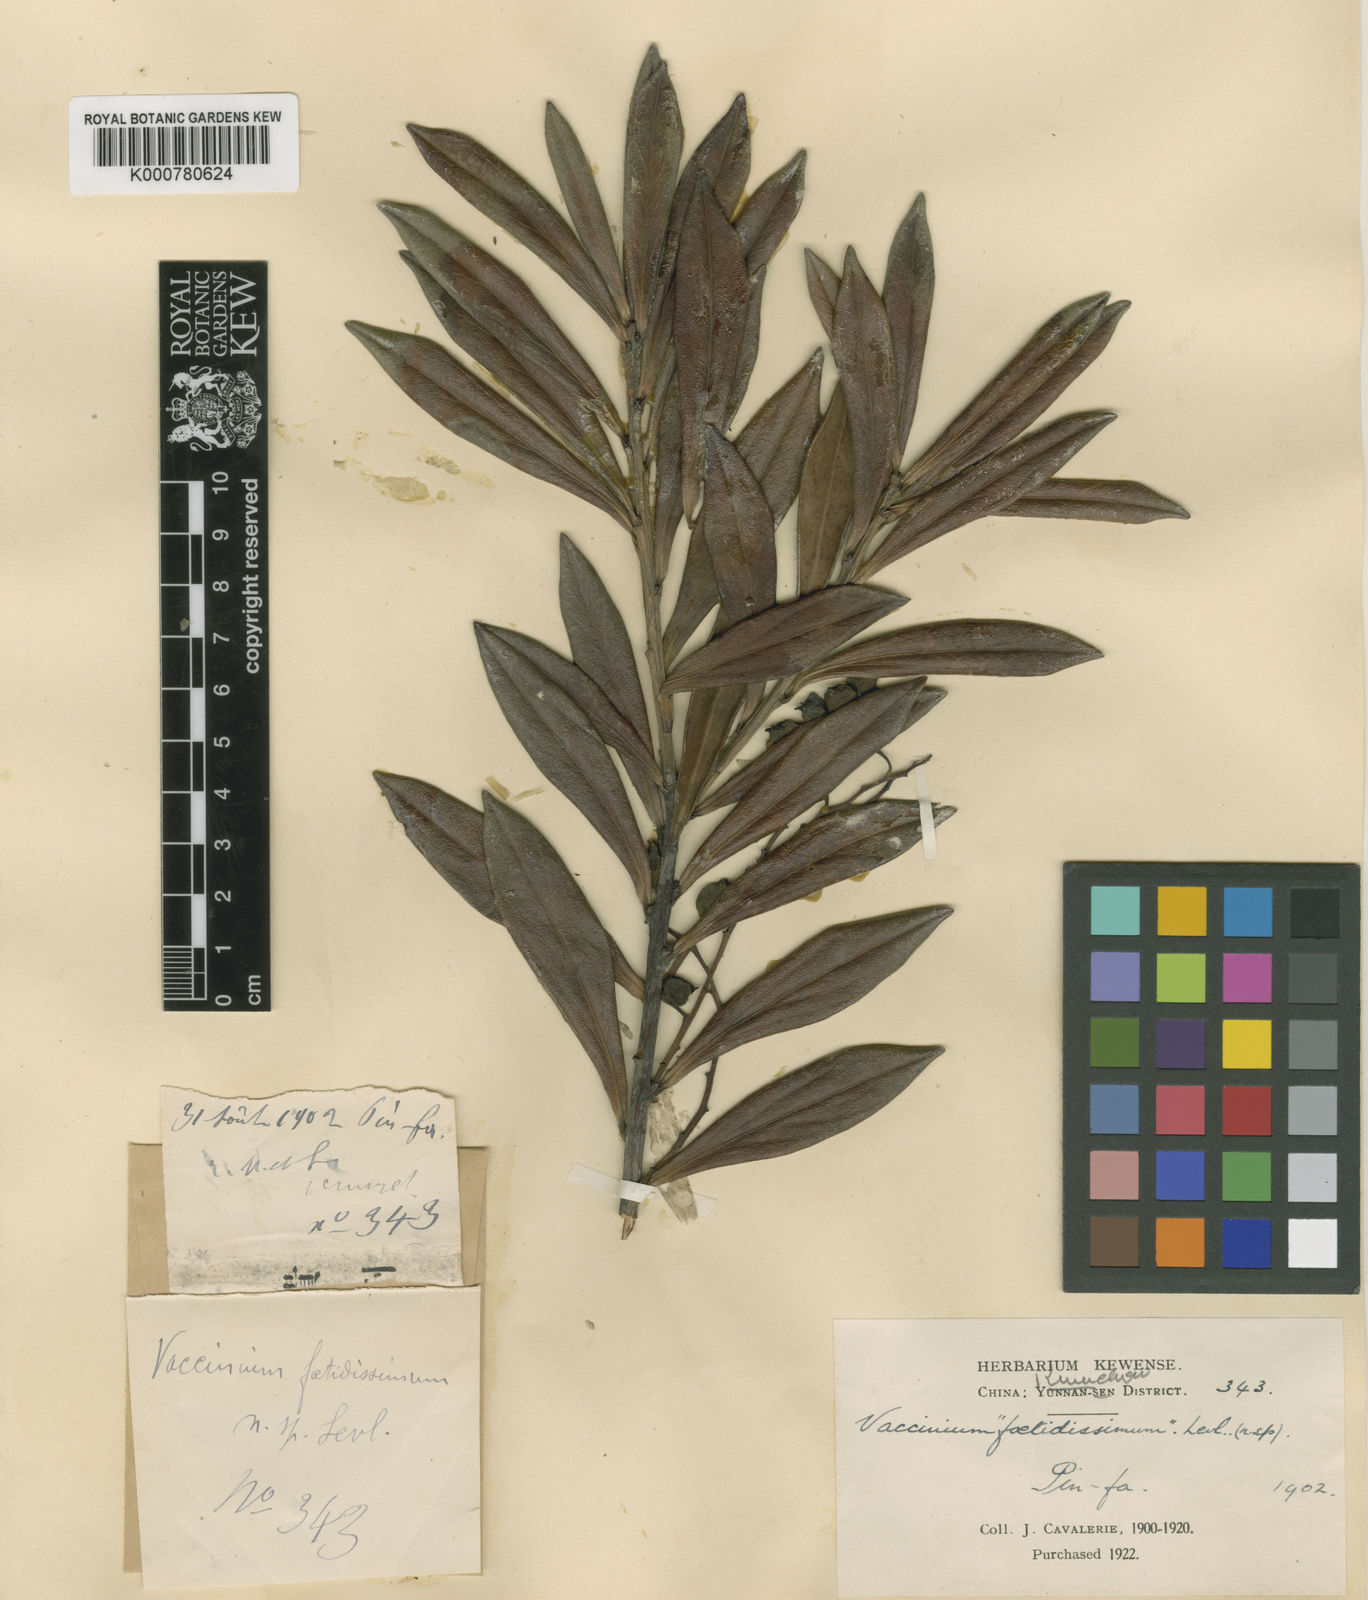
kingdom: Plantae
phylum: Tracheophyta
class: Magnoliopsida
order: Ericales
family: Ericaceae
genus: Vaccinium
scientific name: Vaccinium
